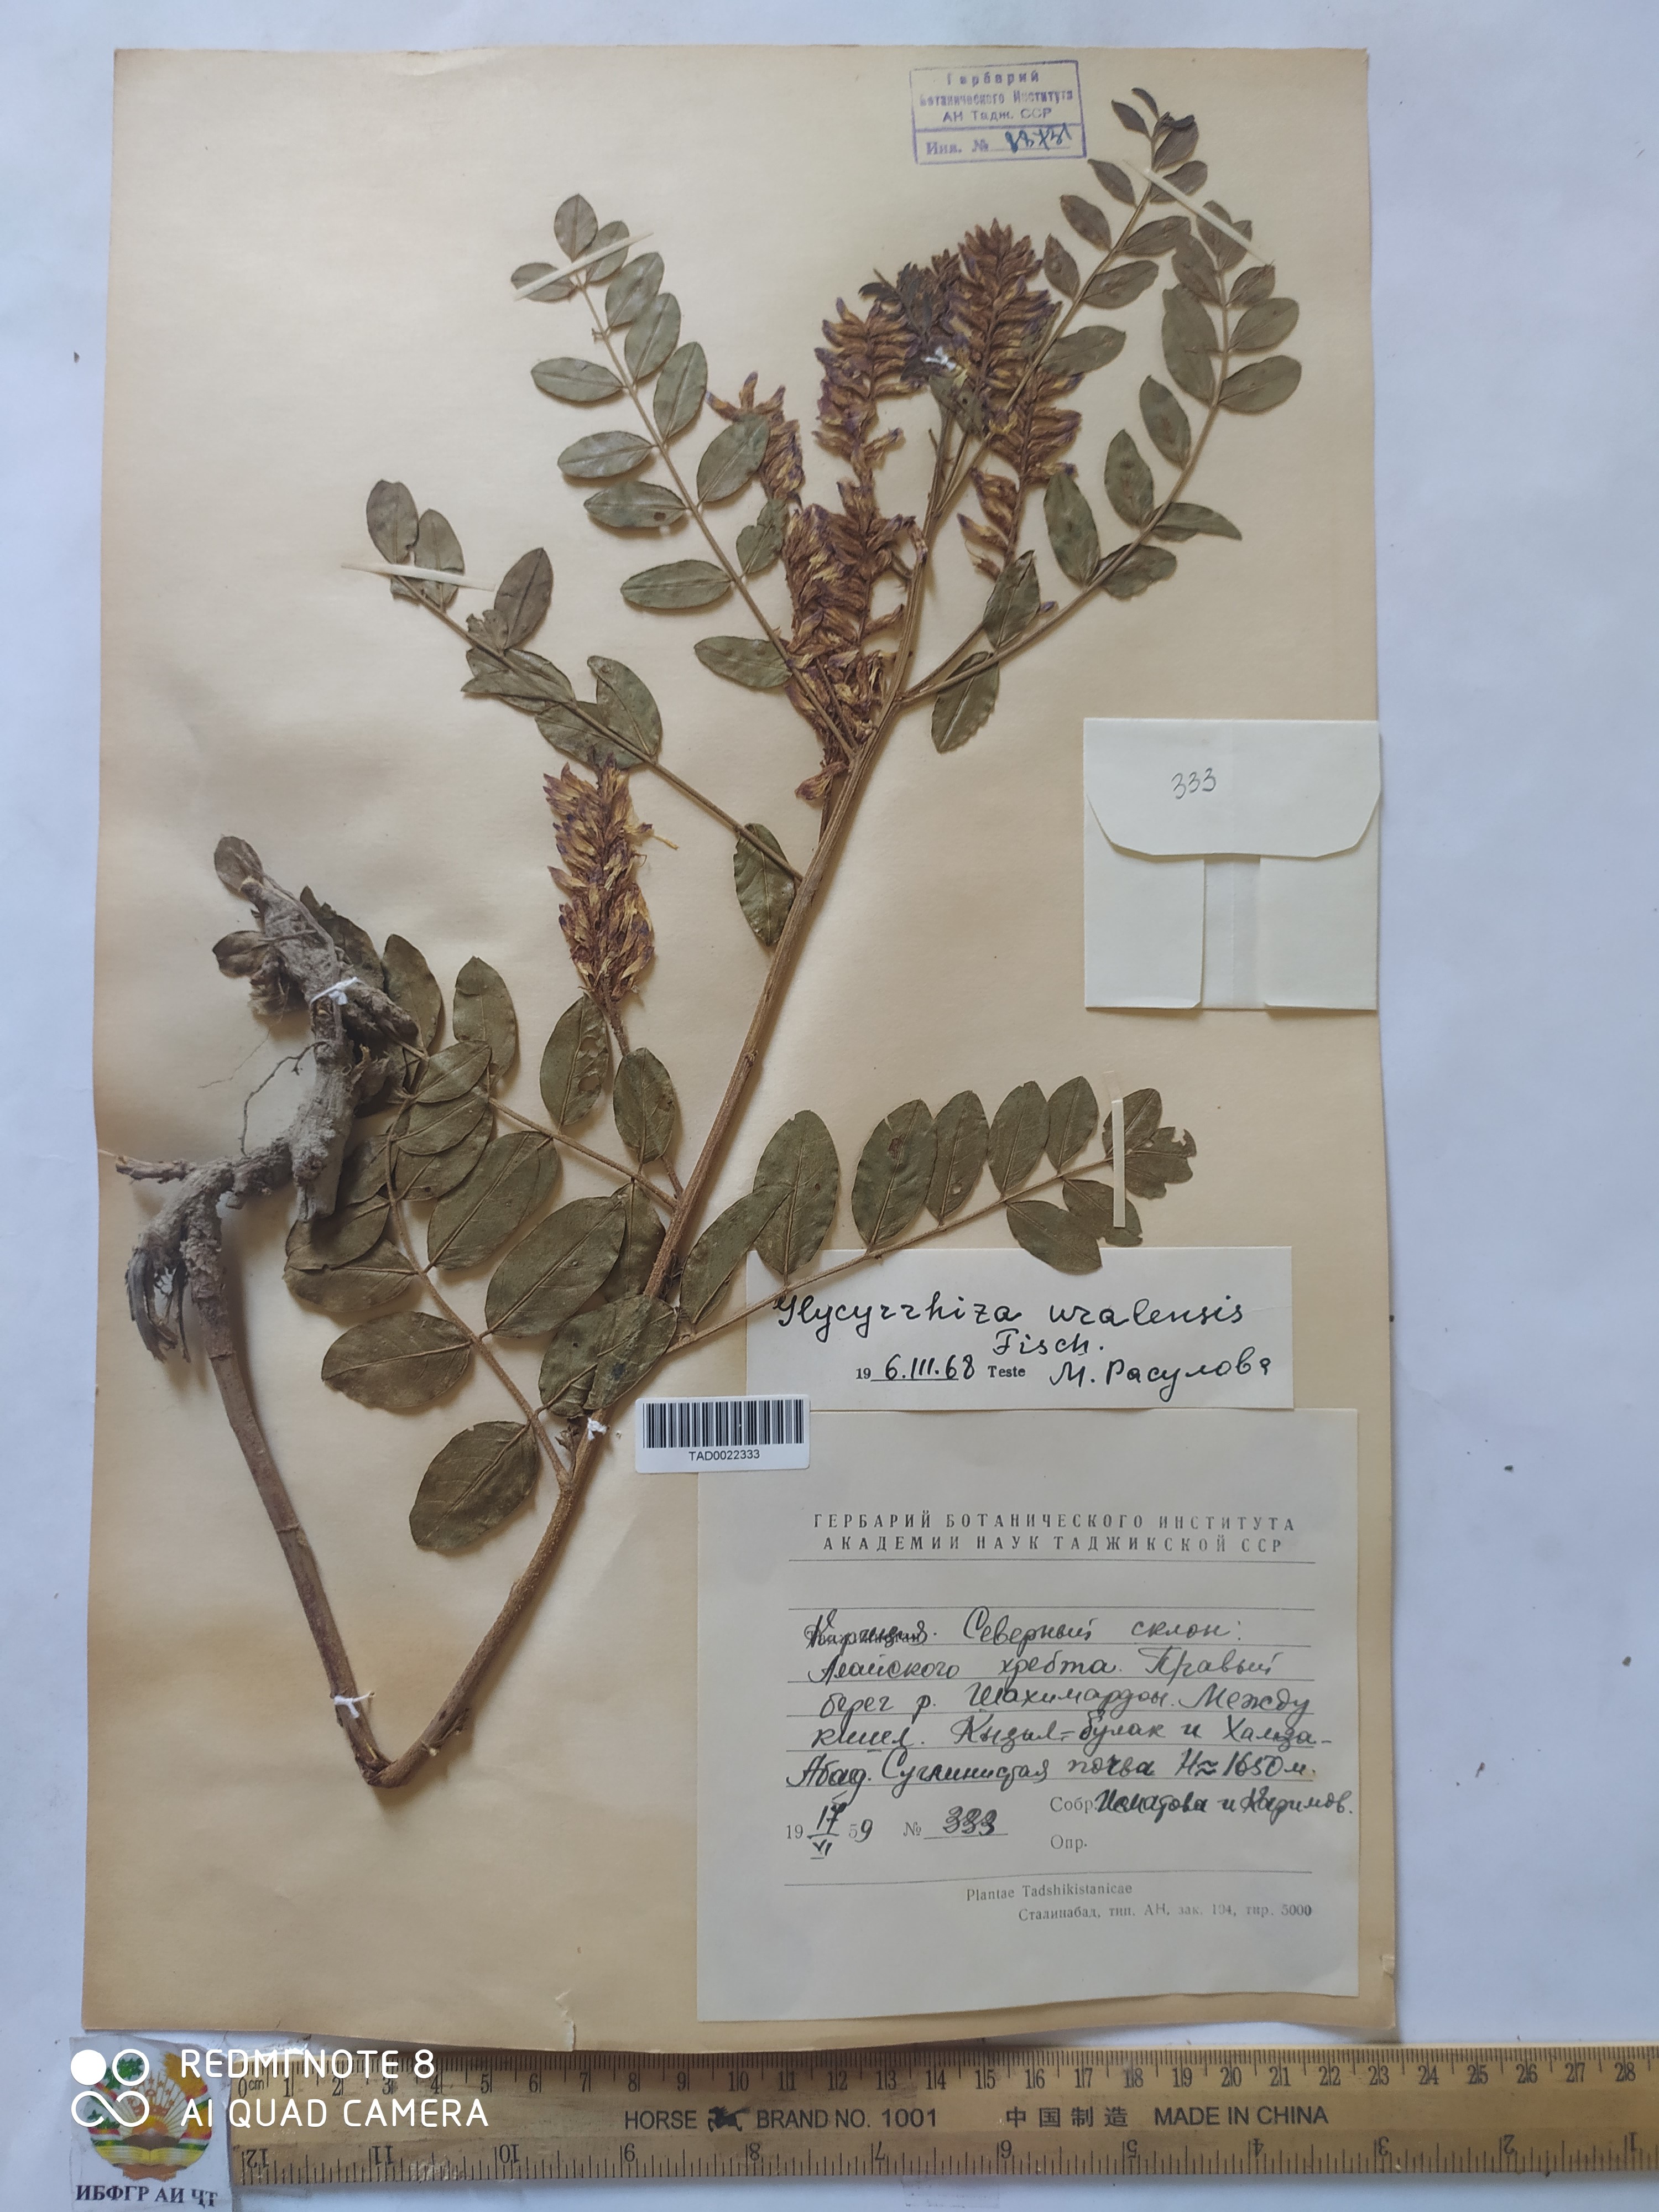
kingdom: Plantae
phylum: Tracheophyta
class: Magnoliopsida
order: Fabales
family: Fabaceae
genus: Glycyrrhiza
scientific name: Glycyrrhiza uralensis
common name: Chinese licorice
